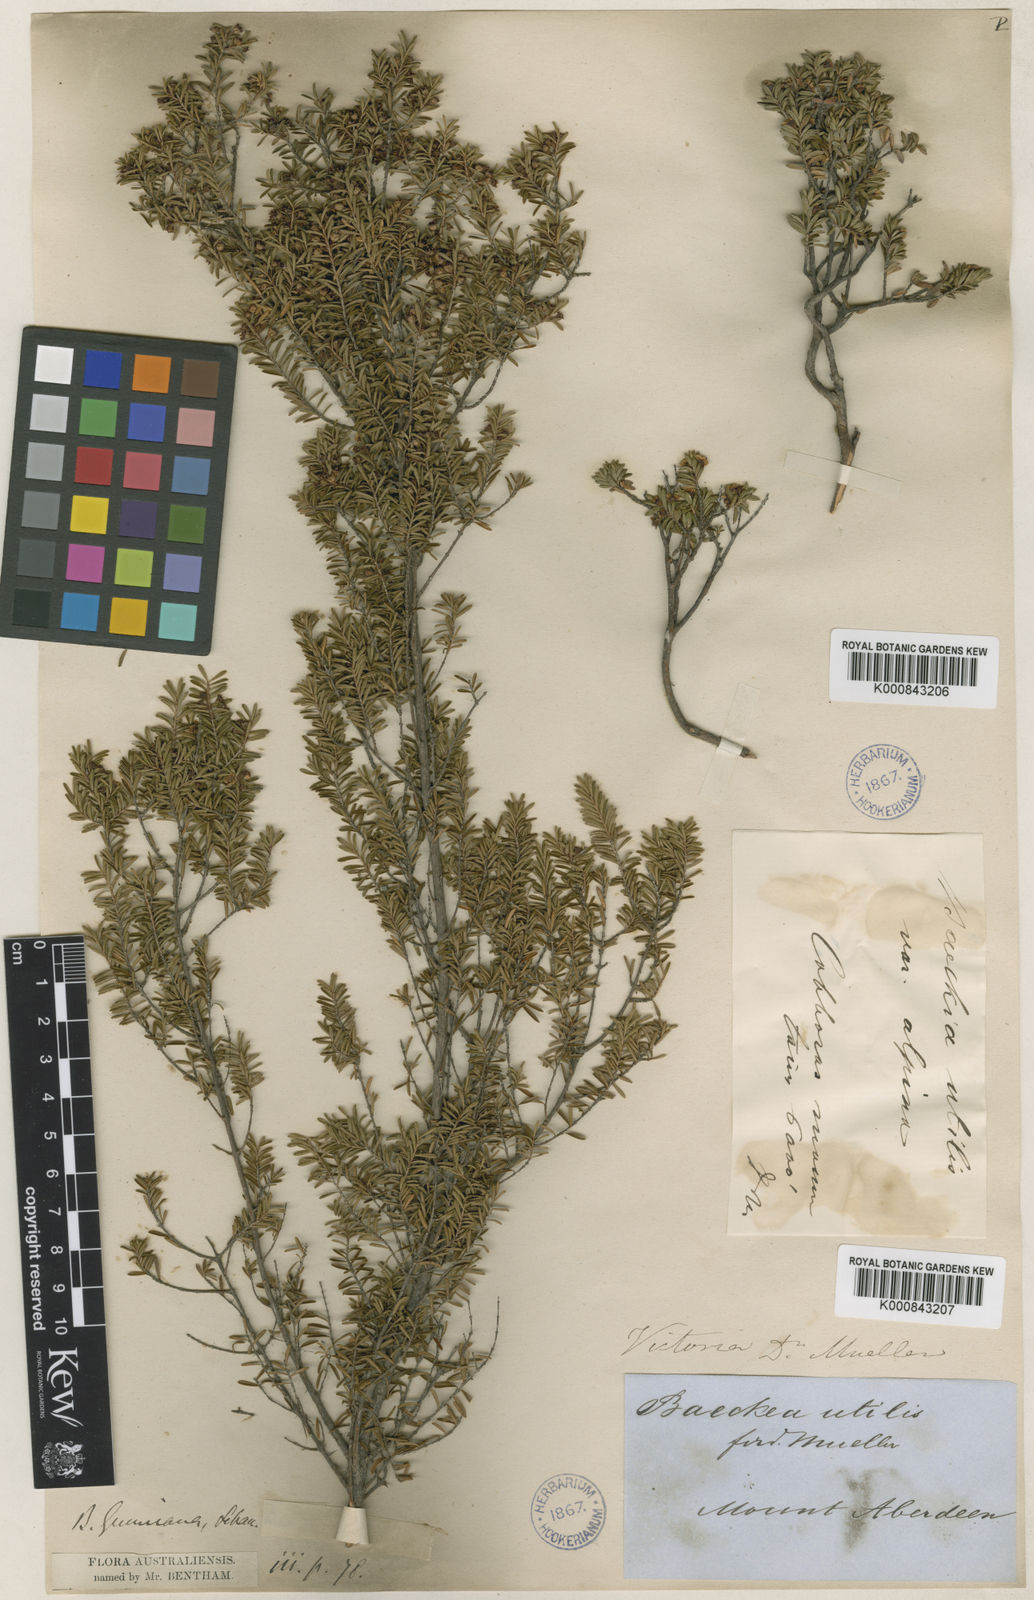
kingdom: Plantae
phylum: Tracheophyta
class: Magnoliopsida
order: Myrtales
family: Myrtaceae
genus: Baeckea
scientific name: Baeckea latifolia
